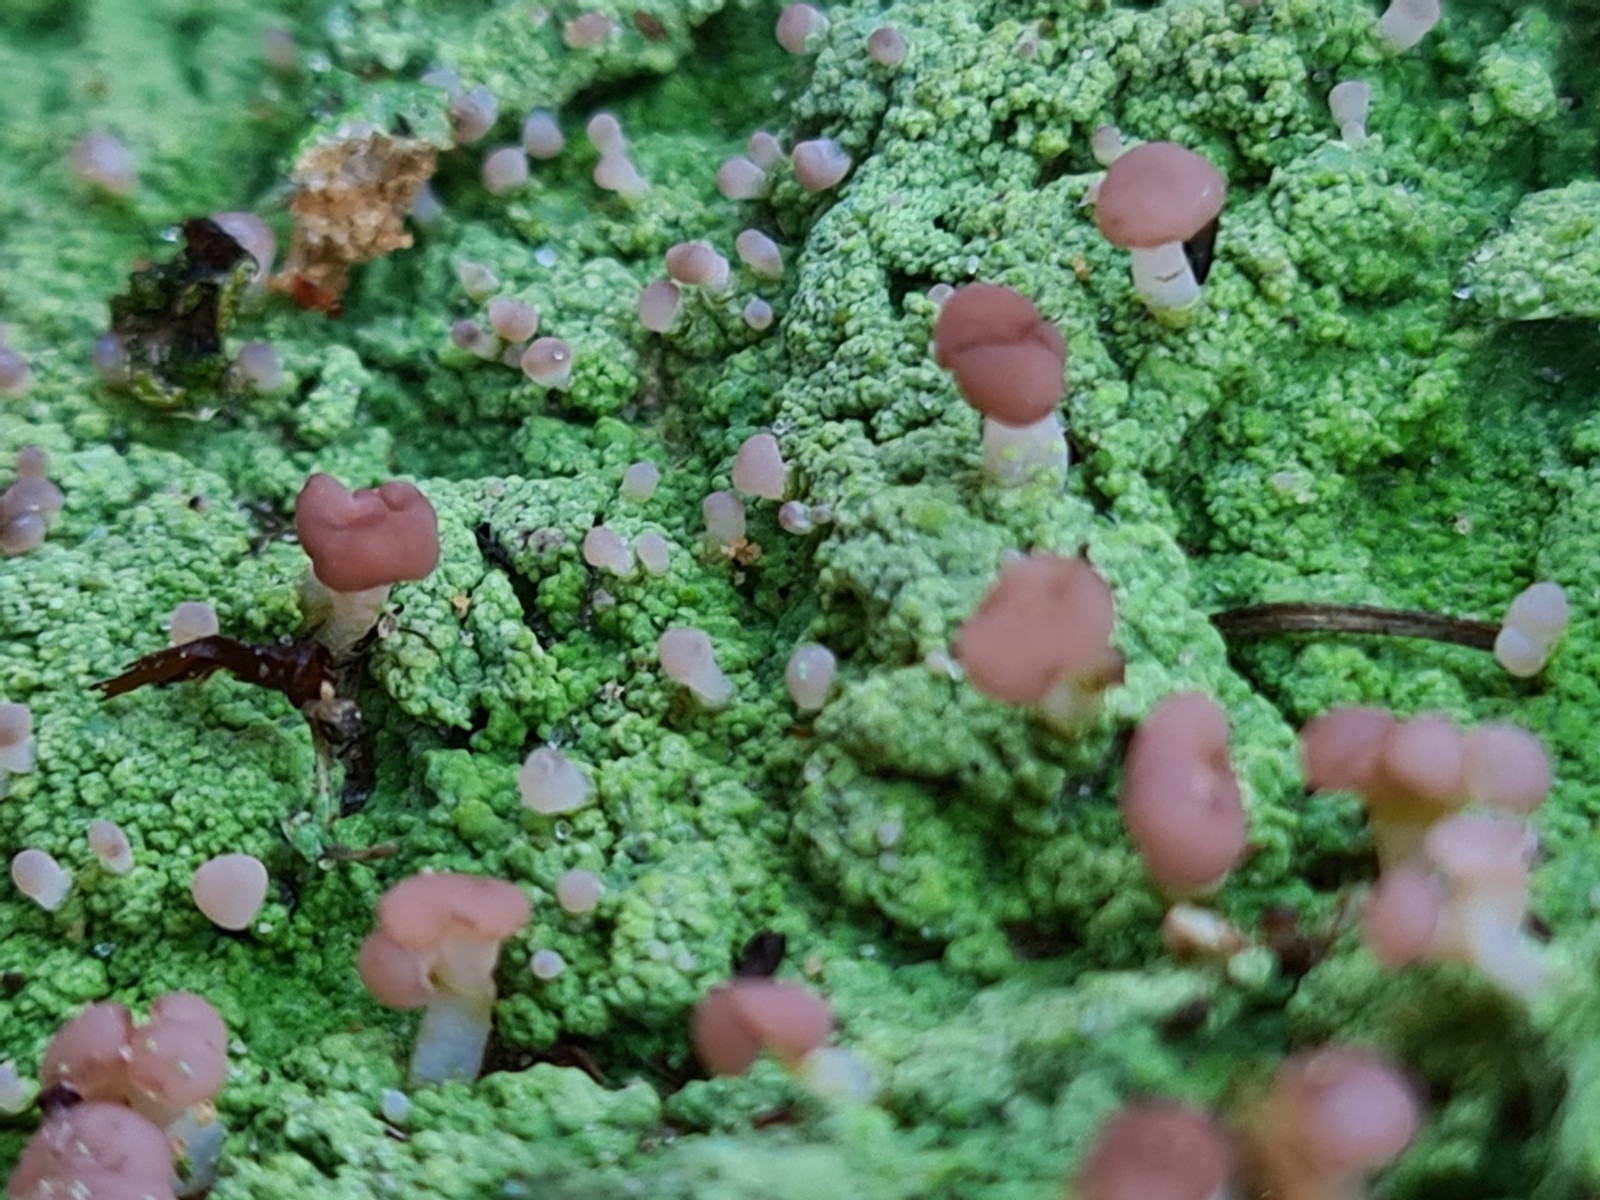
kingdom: Fungi
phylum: Ascomycota
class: Lecanoromycetes
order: Baeomycetales
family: Baeomycetaceae
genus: Baeomyces
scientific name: Baeomyces rufus
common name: rødbrun svampelav
